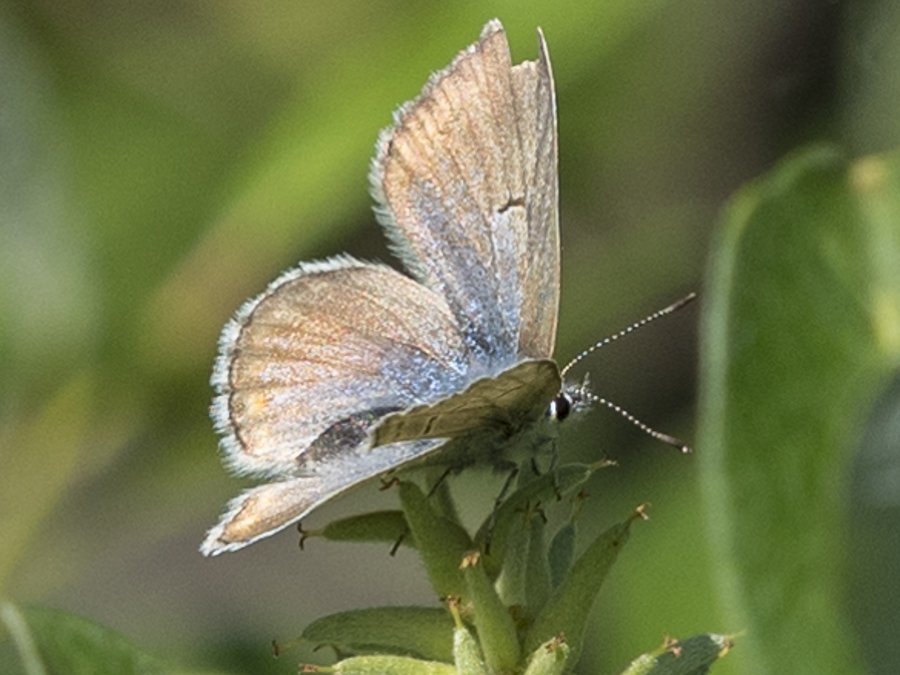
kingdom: Animalia
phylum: Arthropoda
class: Insecta
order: Lepidoptera
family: Lycaenidae
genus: Plebejus
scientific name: Plebejus saepiolus
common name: Greenish Blue
